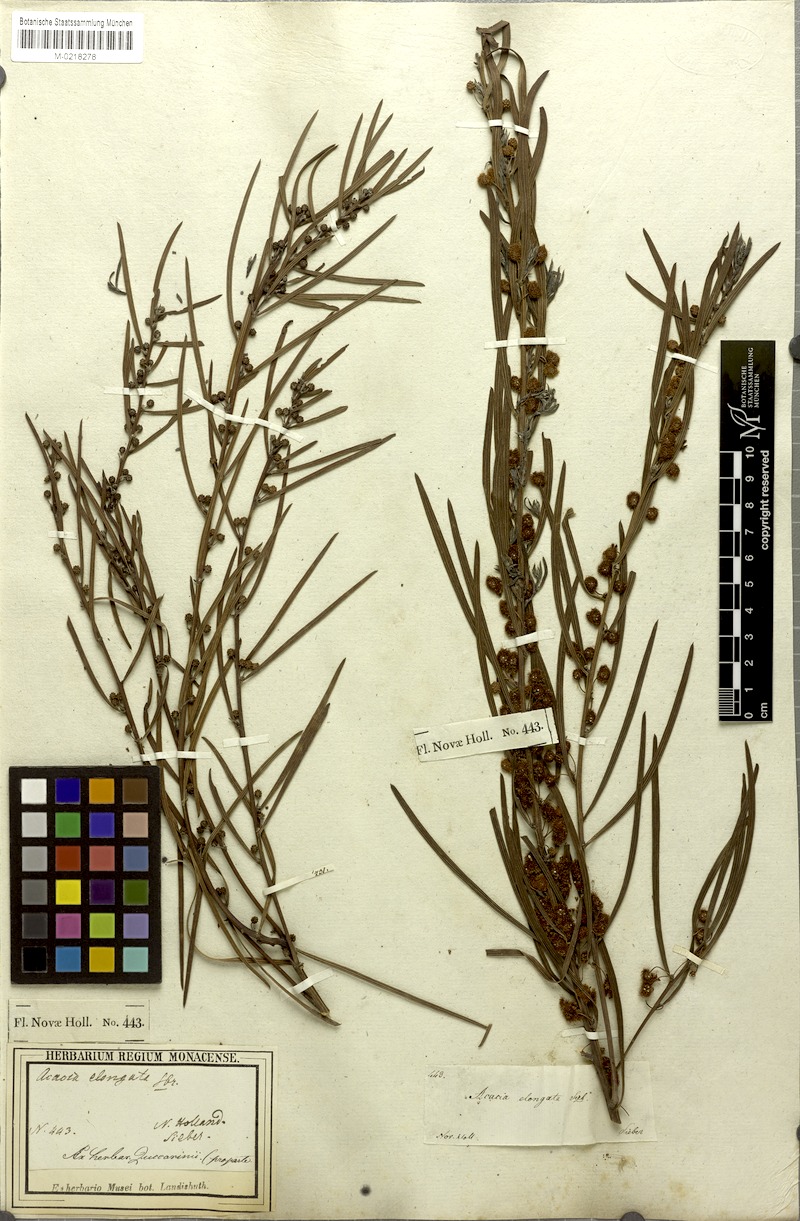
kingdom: Plantae
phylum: Tracheophyta
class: Magnoliopsida
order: Fabales
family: Fabaceae
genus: Acacia
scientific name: Acacia elongata
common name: Swamp wattle
